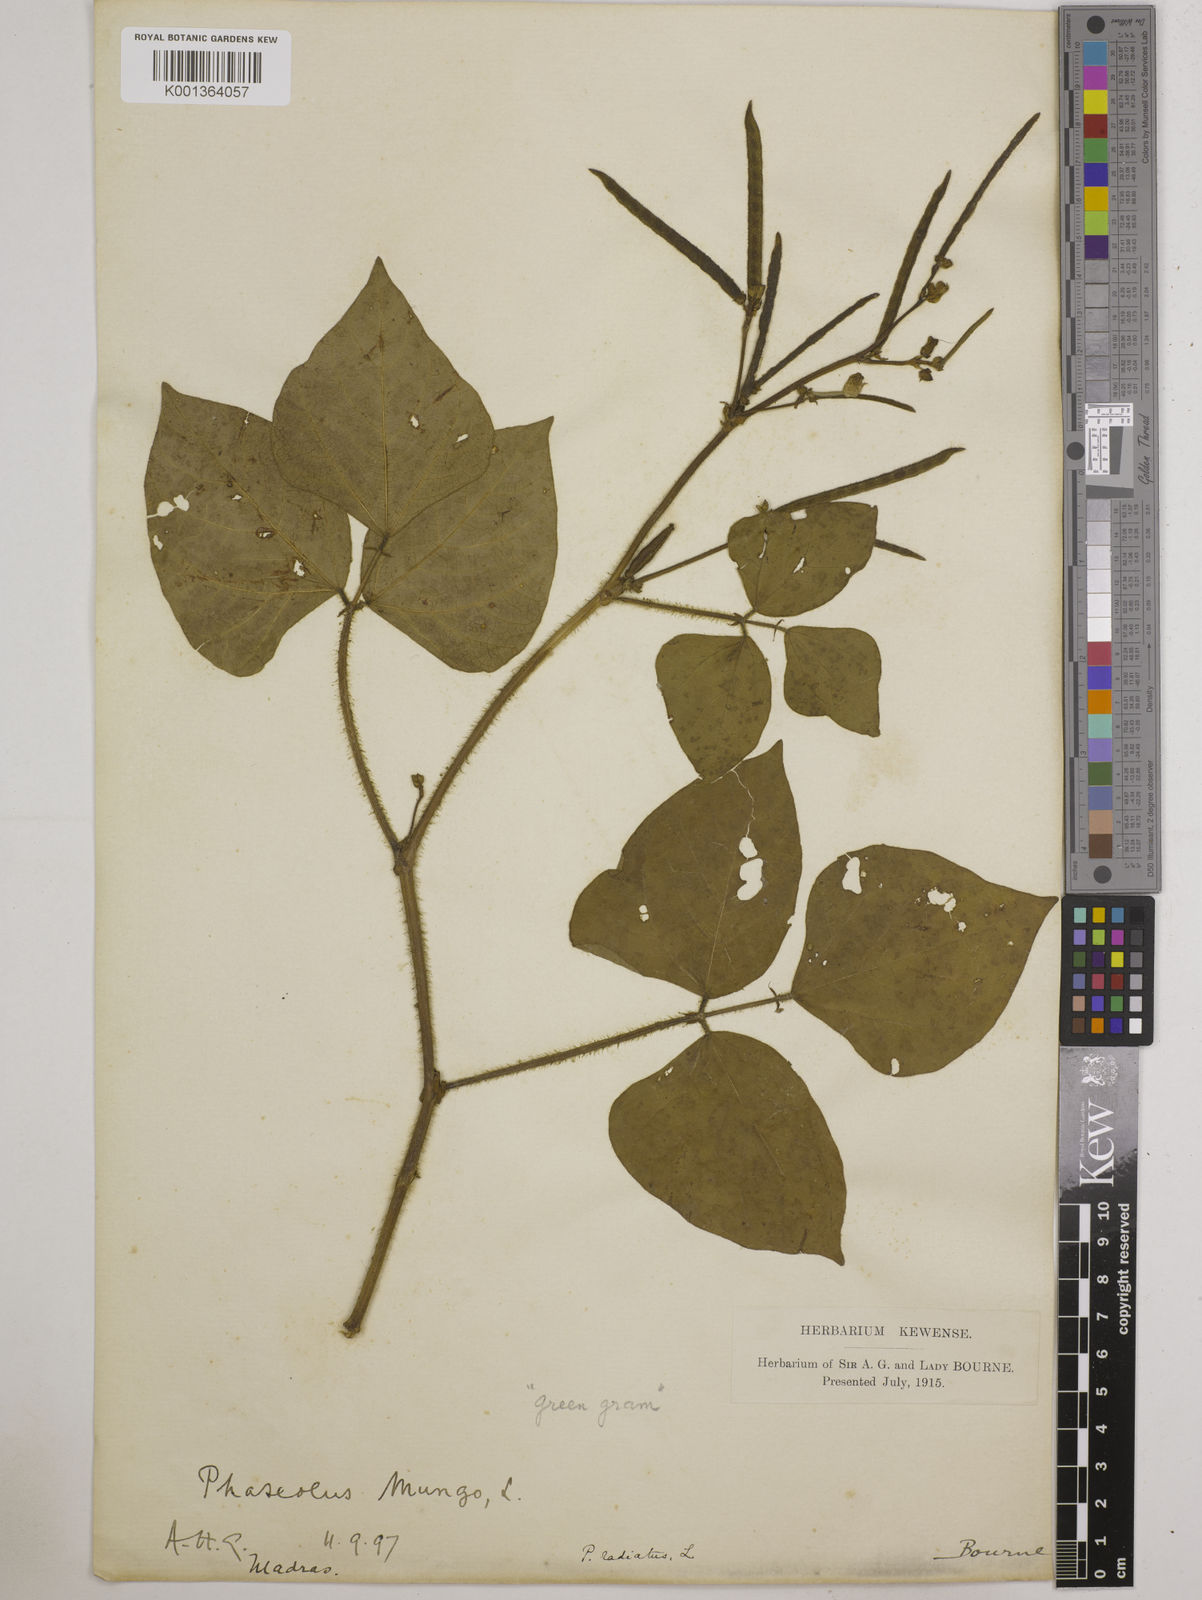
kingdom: Plantae
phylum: Tracheophyta
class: Magnoliopsida
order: Fabales
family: Fabaceae
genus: Vigna
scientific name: Vigna radiata
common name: Mung-bean
